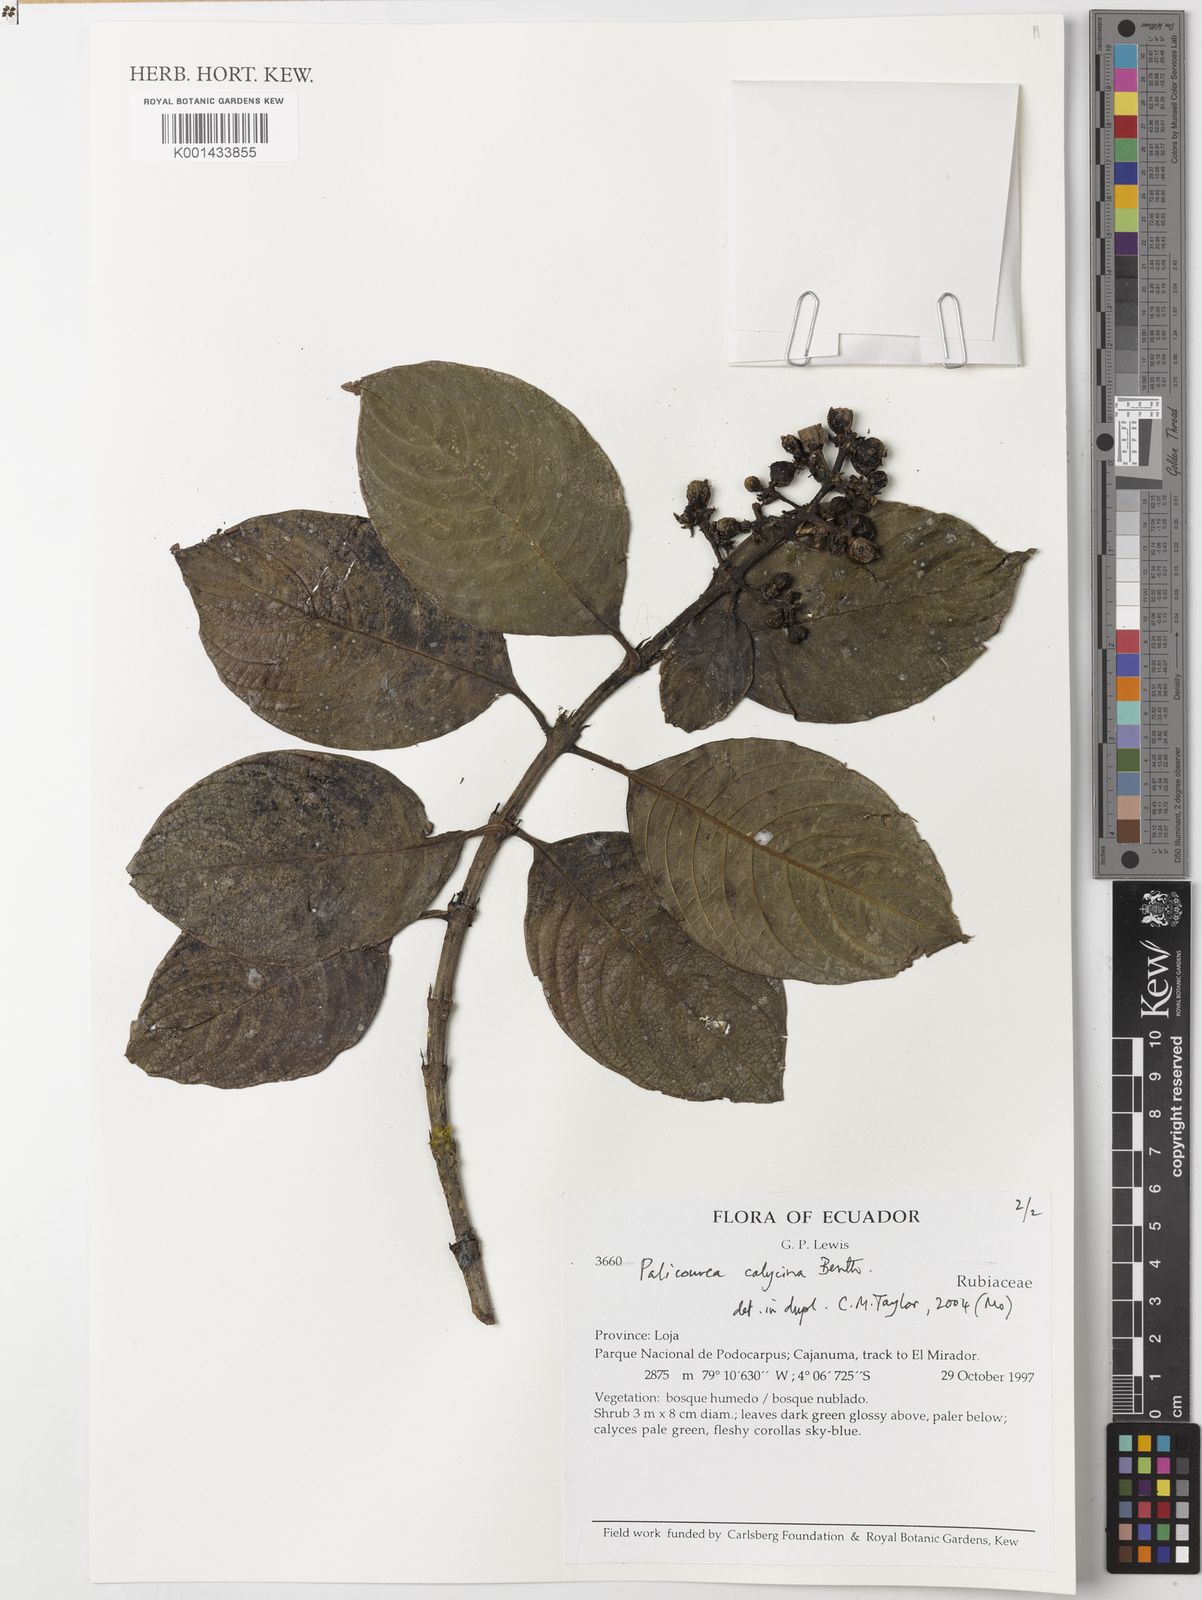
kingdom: Plantae
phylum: Tracheophyta
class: Magnoliopsida
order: Gentianales
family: Rubiaceae
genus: Palicourea
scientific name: Palicourea calycina
